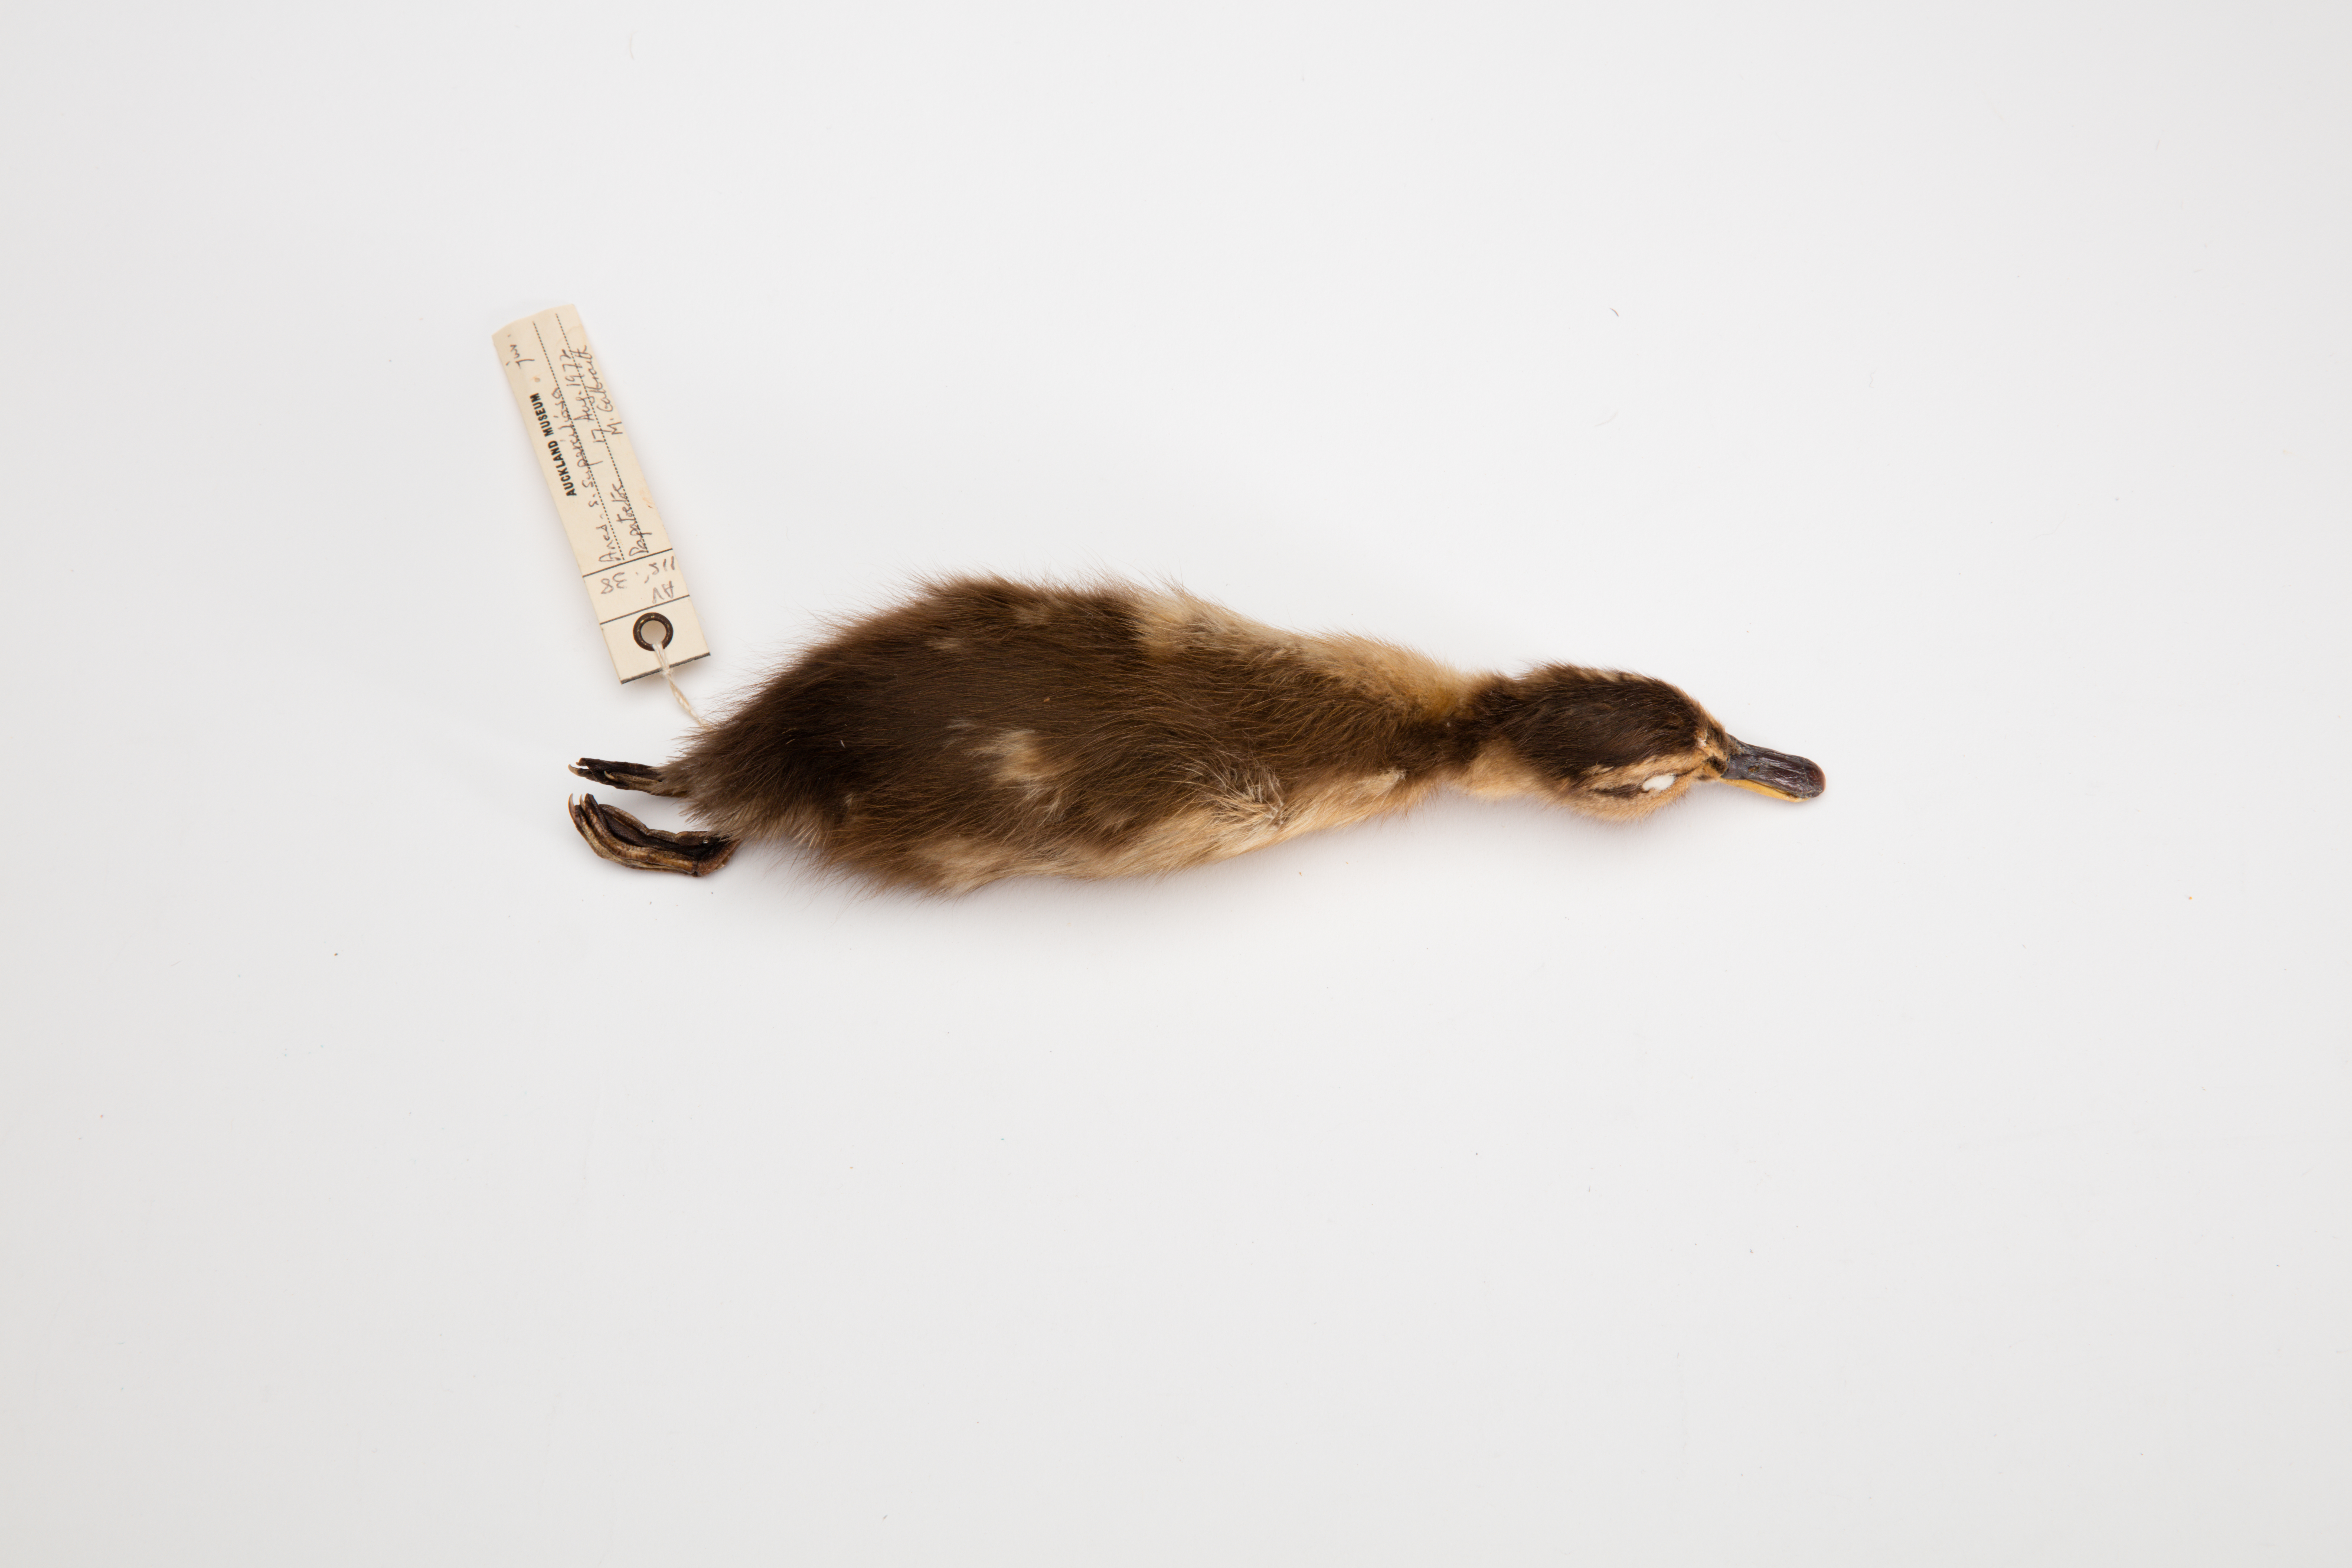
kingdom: Animalia
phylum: Chordata
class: Aves
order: Anseriformes
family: Anatidae
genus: Anas
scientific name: Anas superciliosa
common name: Pacific black duck
